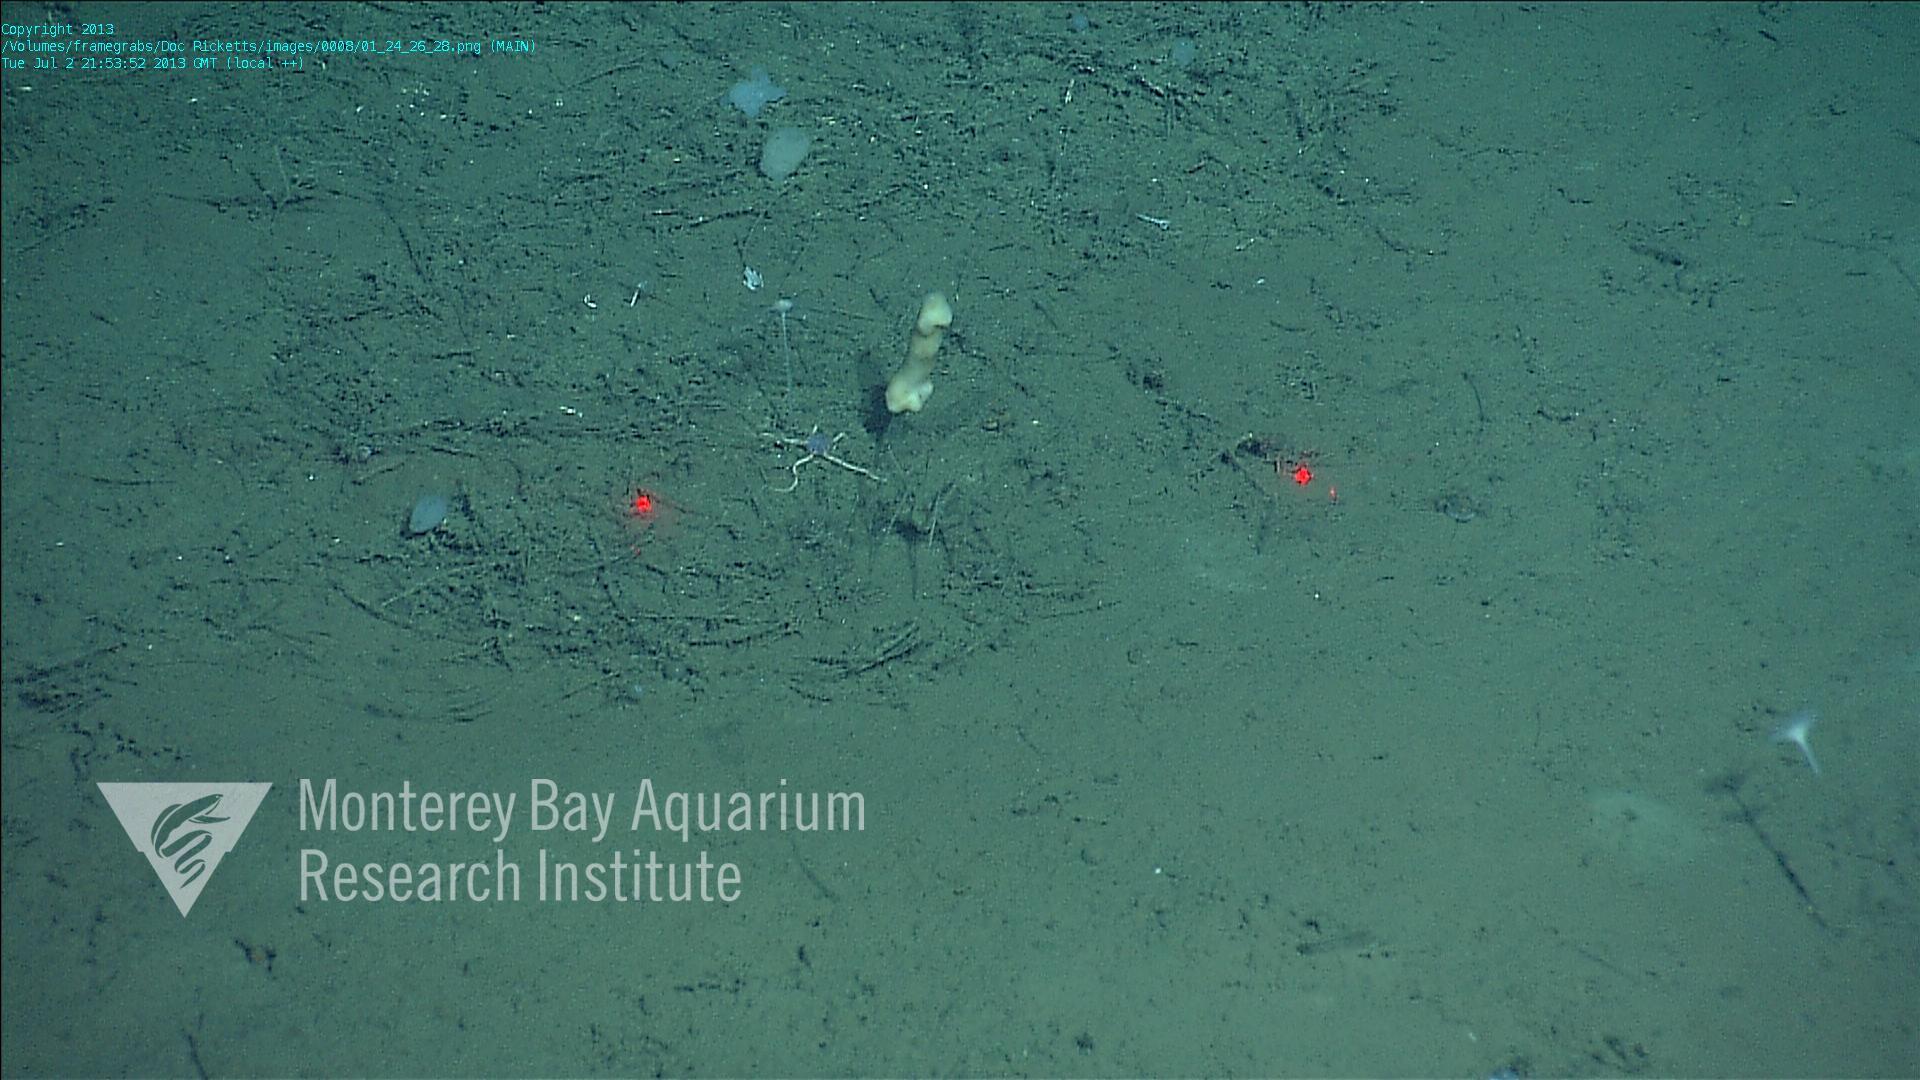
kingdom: Animalia
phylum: Porifera
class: Demospongiae
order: Poecilosclerida
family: Cladorhizidae
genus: Cladorhiza
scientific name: Cladorhiza
